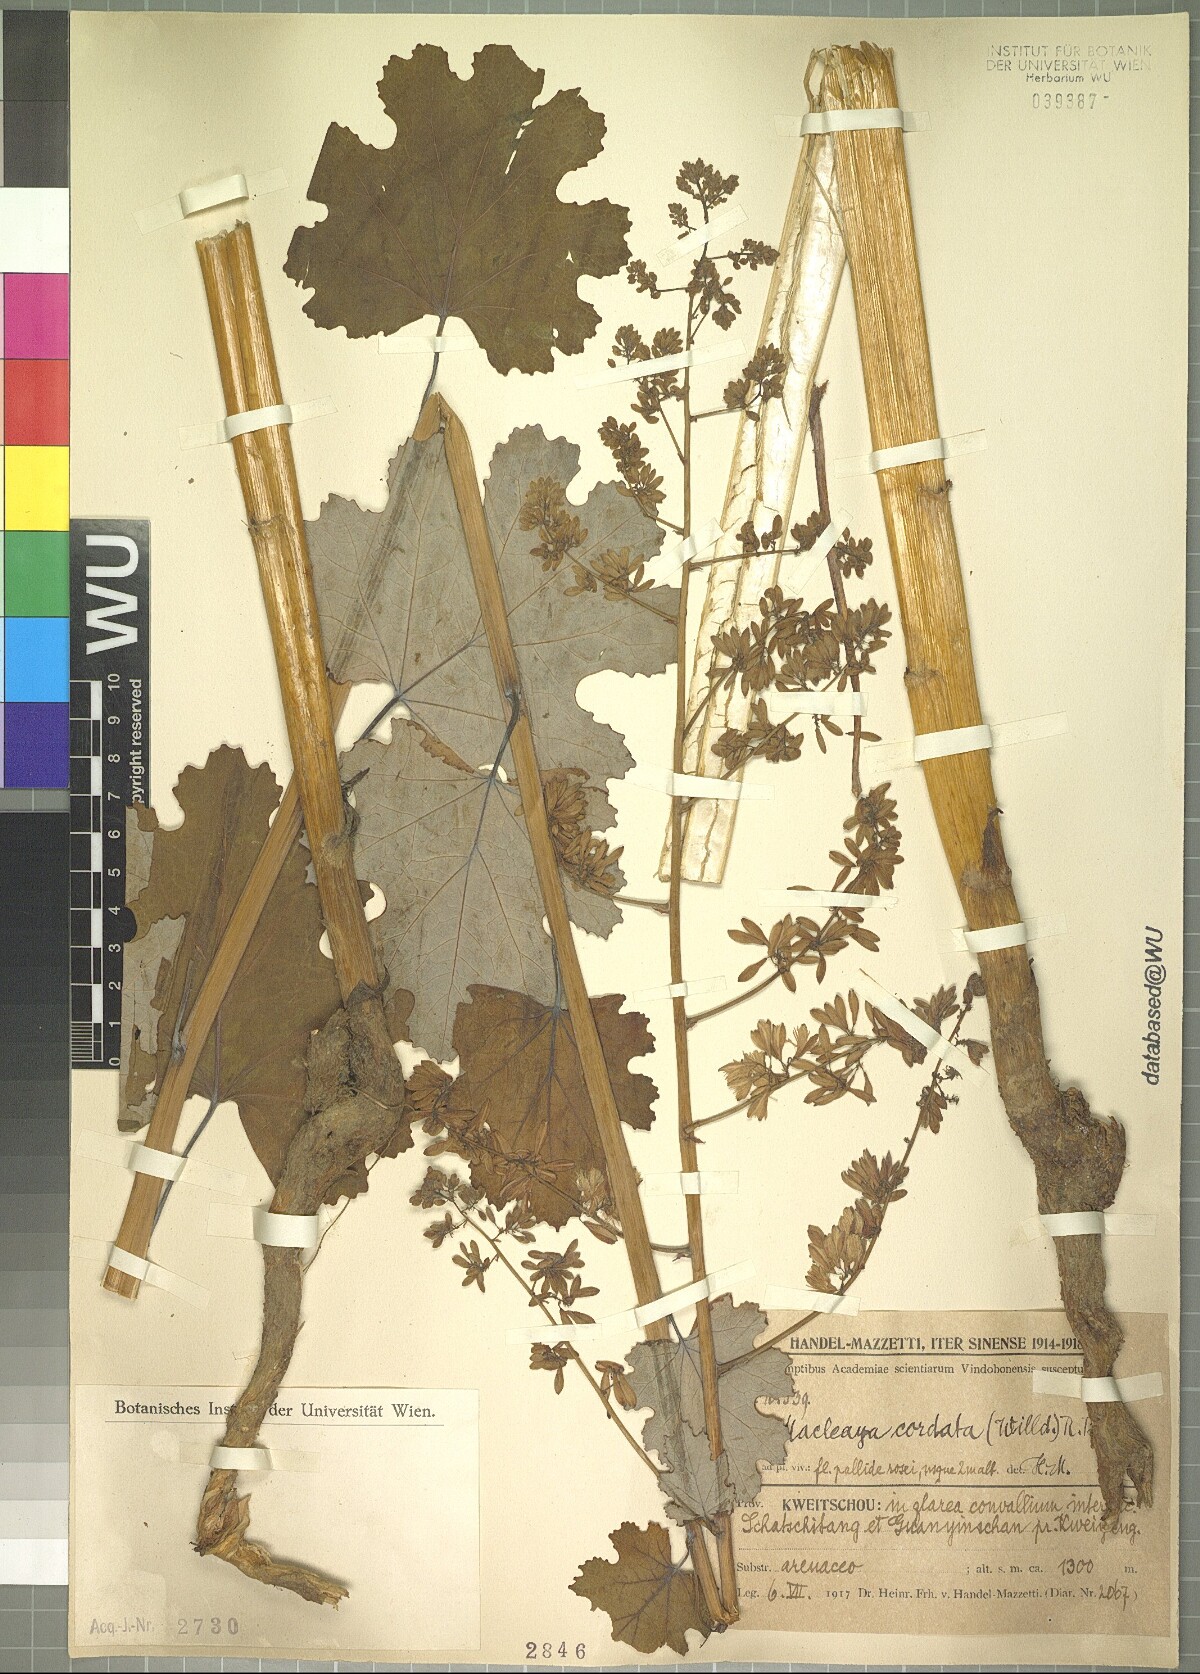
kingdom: Plantae
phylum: Tracheophyta
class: Magnoliopsida
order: Ranunculales
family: Papaveraceae
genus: Macleaya
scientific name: Macleaya cordata
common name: Plume poppy
